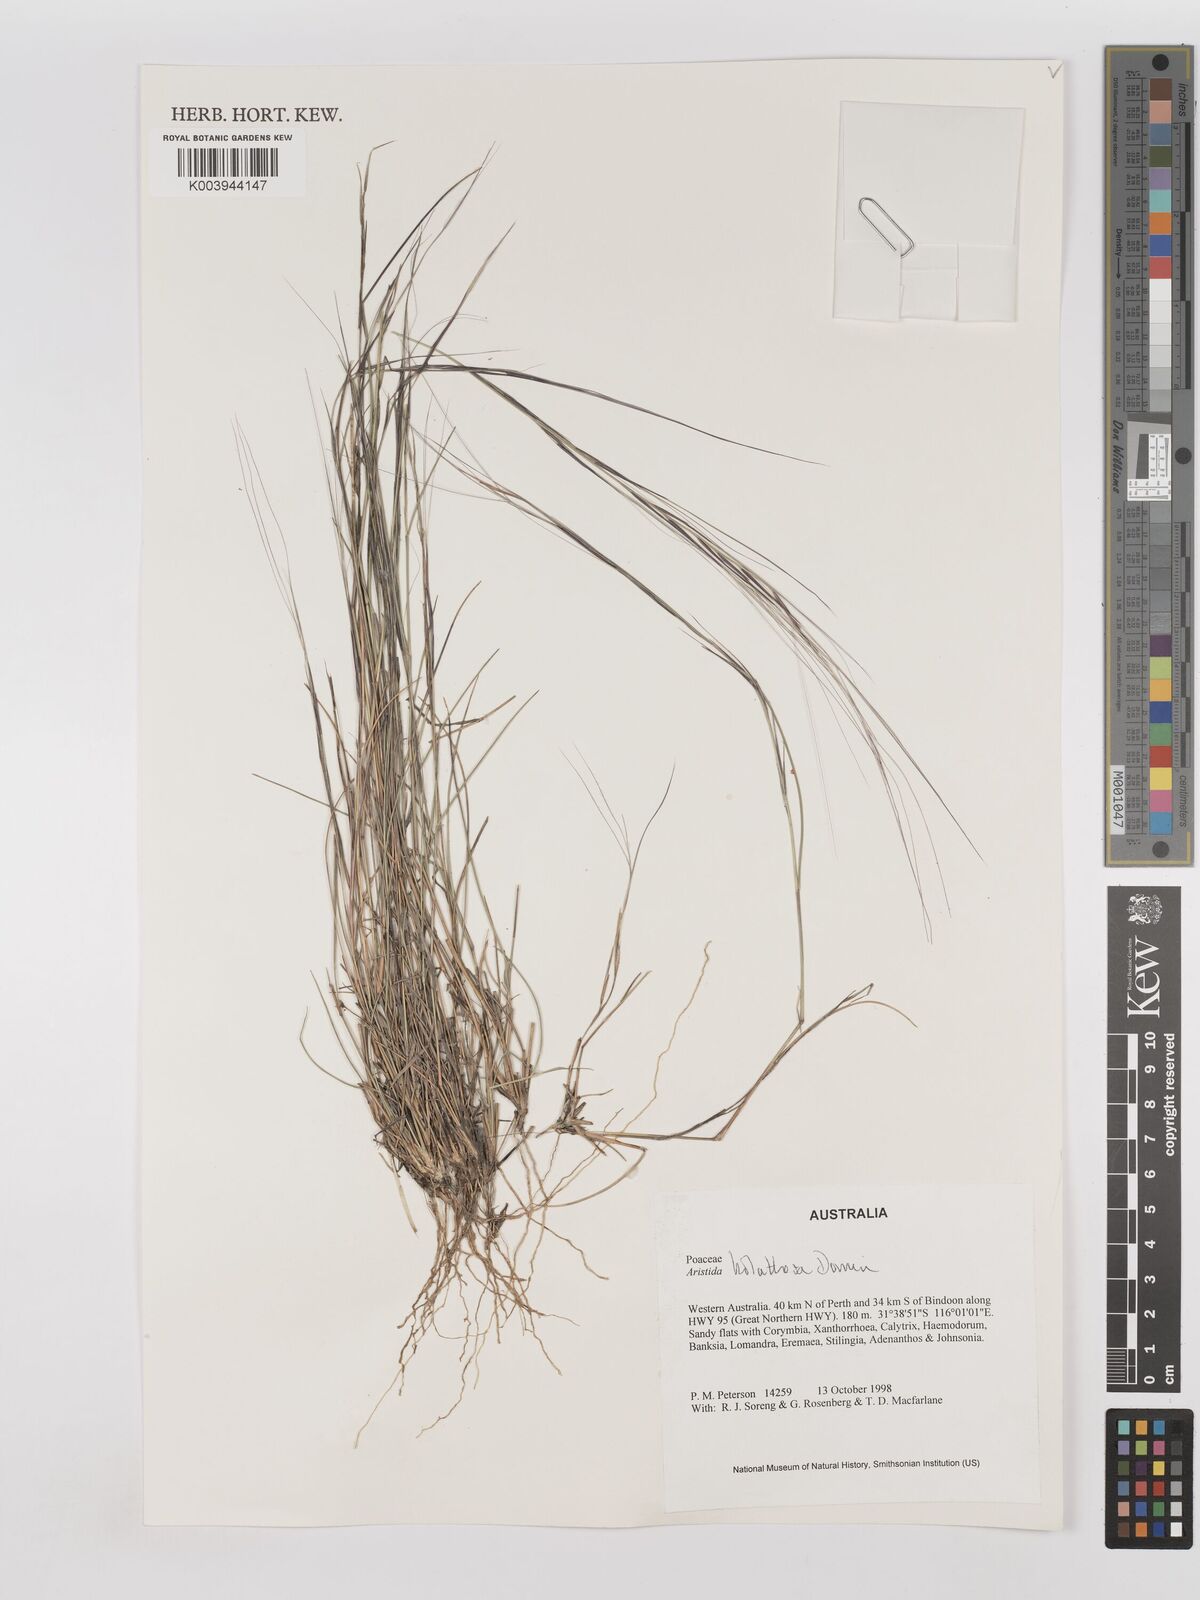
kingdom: Plantae
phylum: Tracheophyta
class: Liliopsida
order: Poales
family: Poaceae
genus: Aristida
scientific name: Aristida holathera
